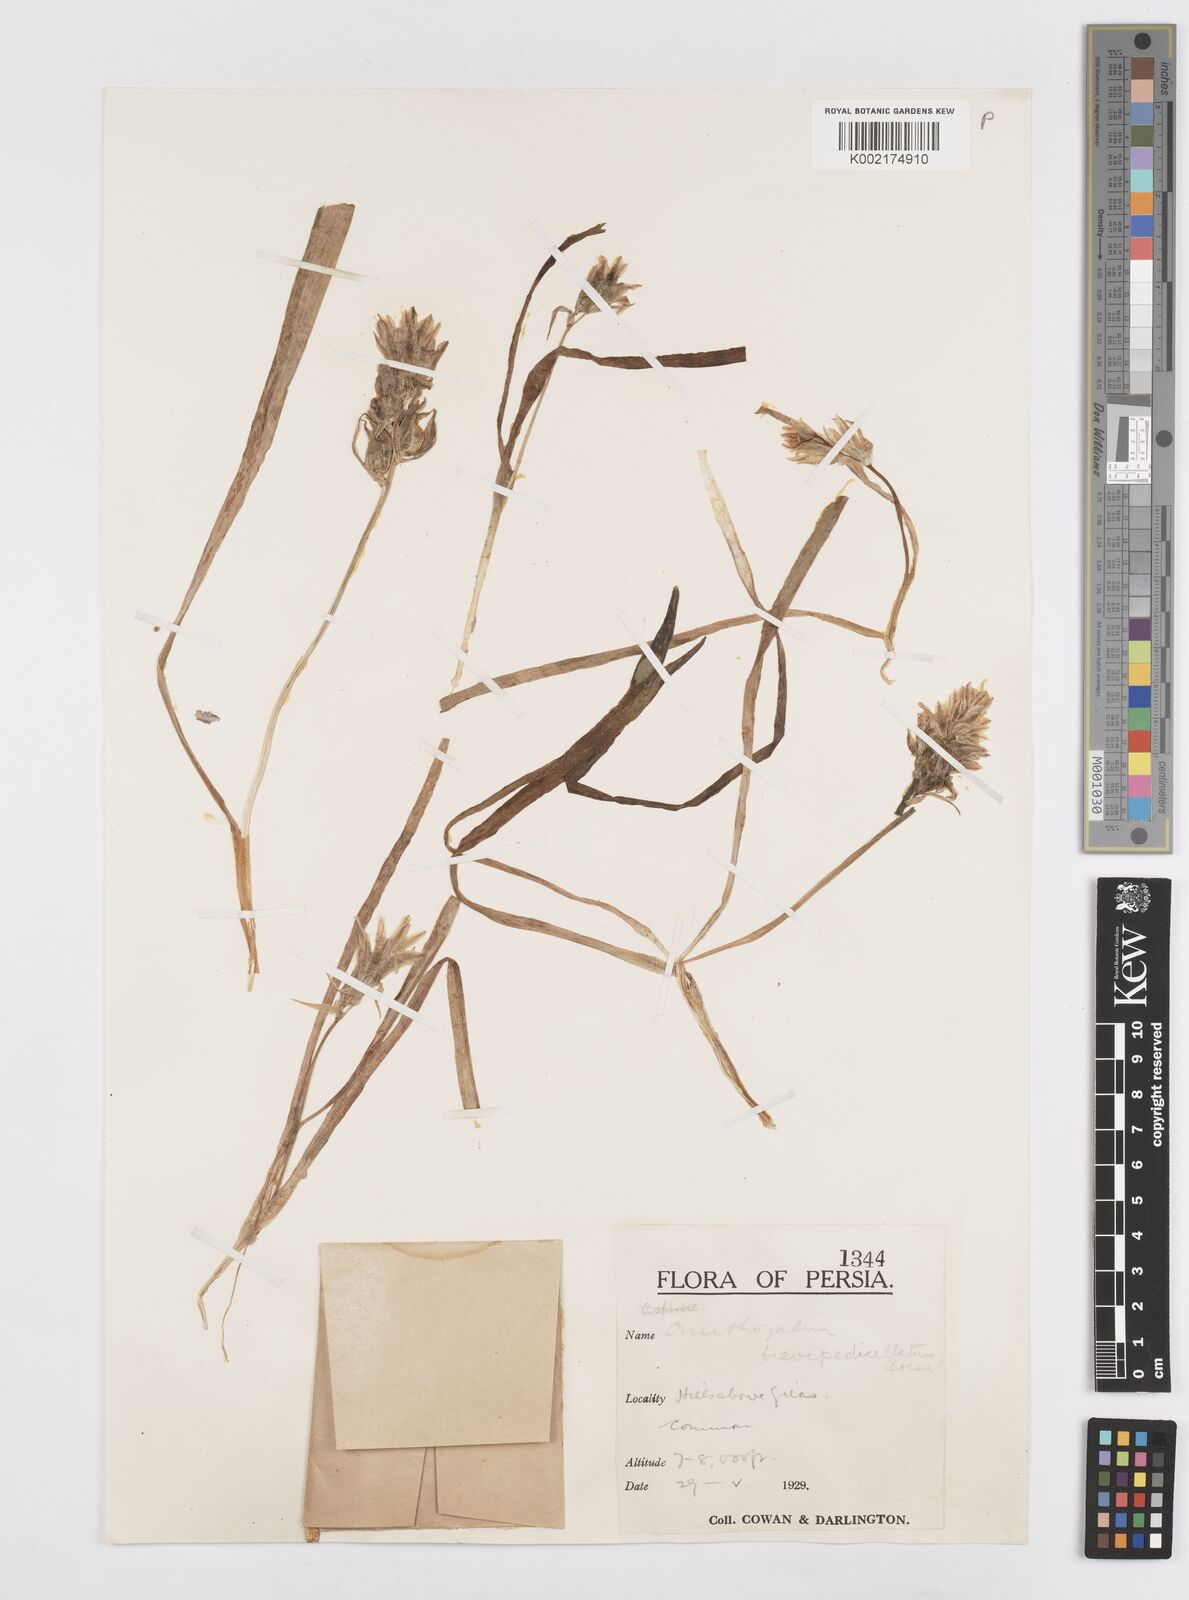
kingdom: Plantae
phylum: Tracheophyta
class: Liliopsida
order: Asparagales
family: Asparagaceae
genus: Ornithogalum
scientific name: Ornithogalum brevipedicellatum
